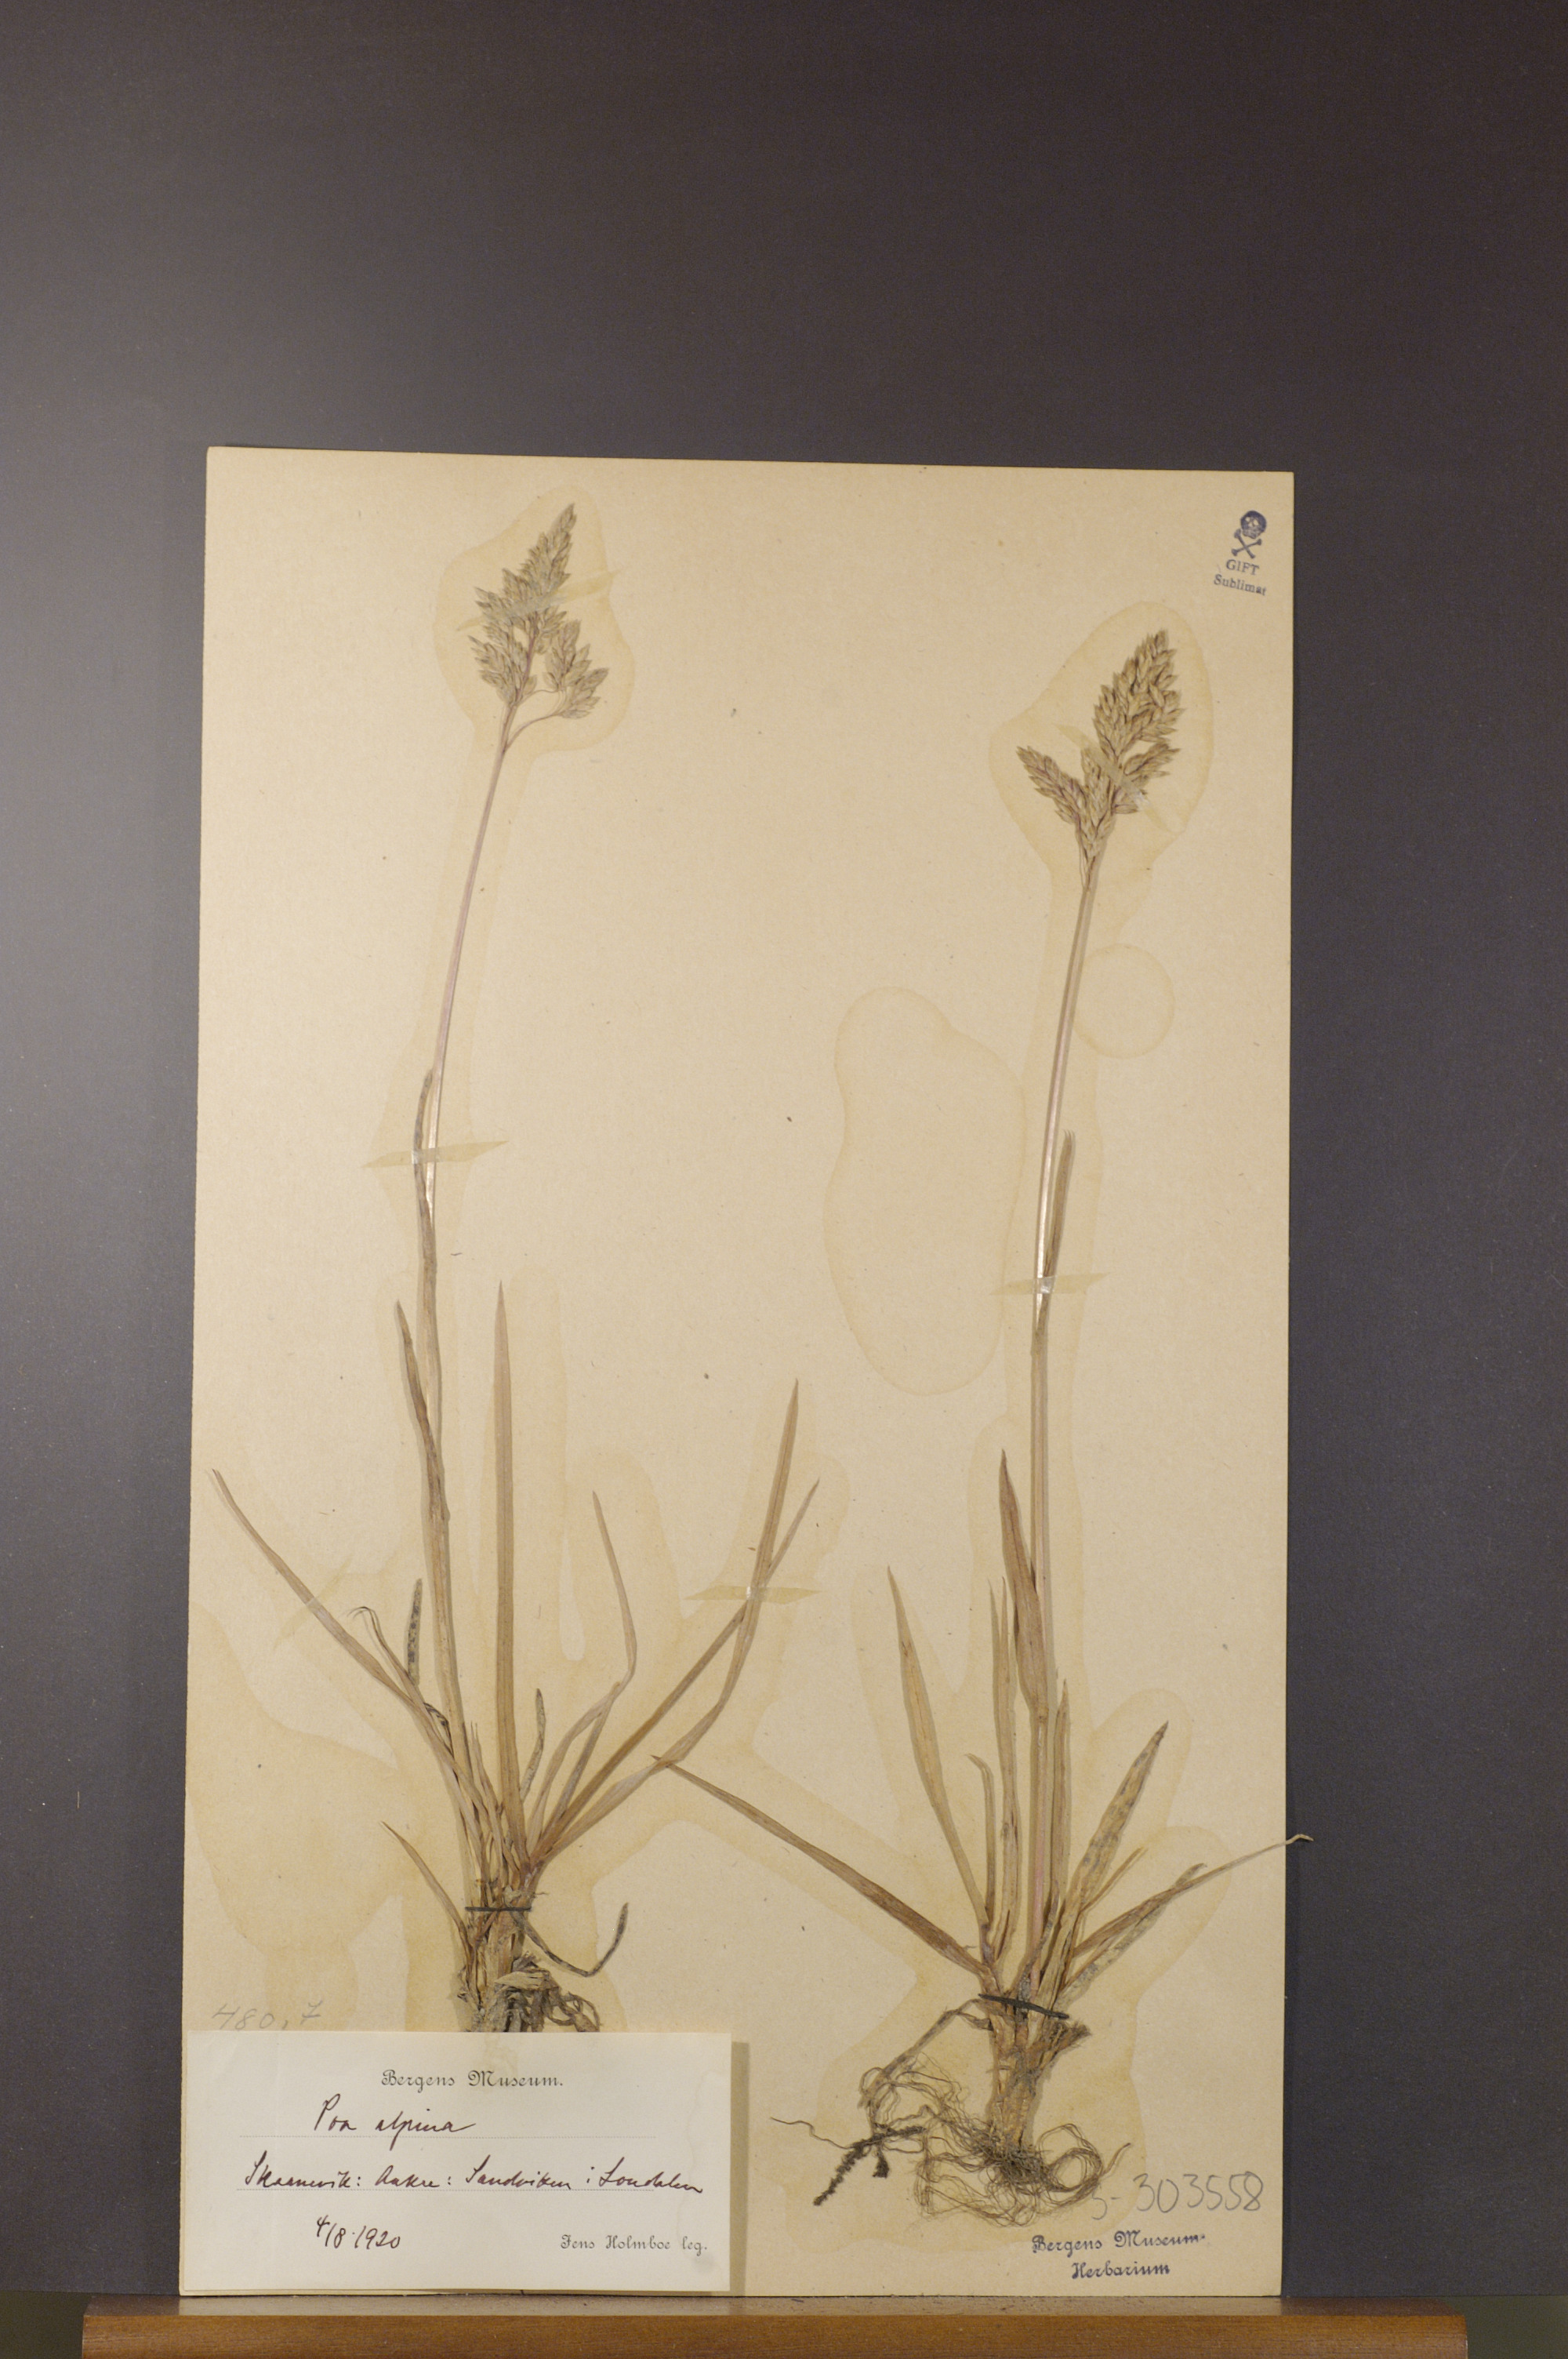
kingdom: Plantae
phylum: Tracheophyta
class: Liliopsida
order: Poales
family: Poaceae
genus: Poa
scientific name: Poa alpina
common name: Alpine bluegrass
